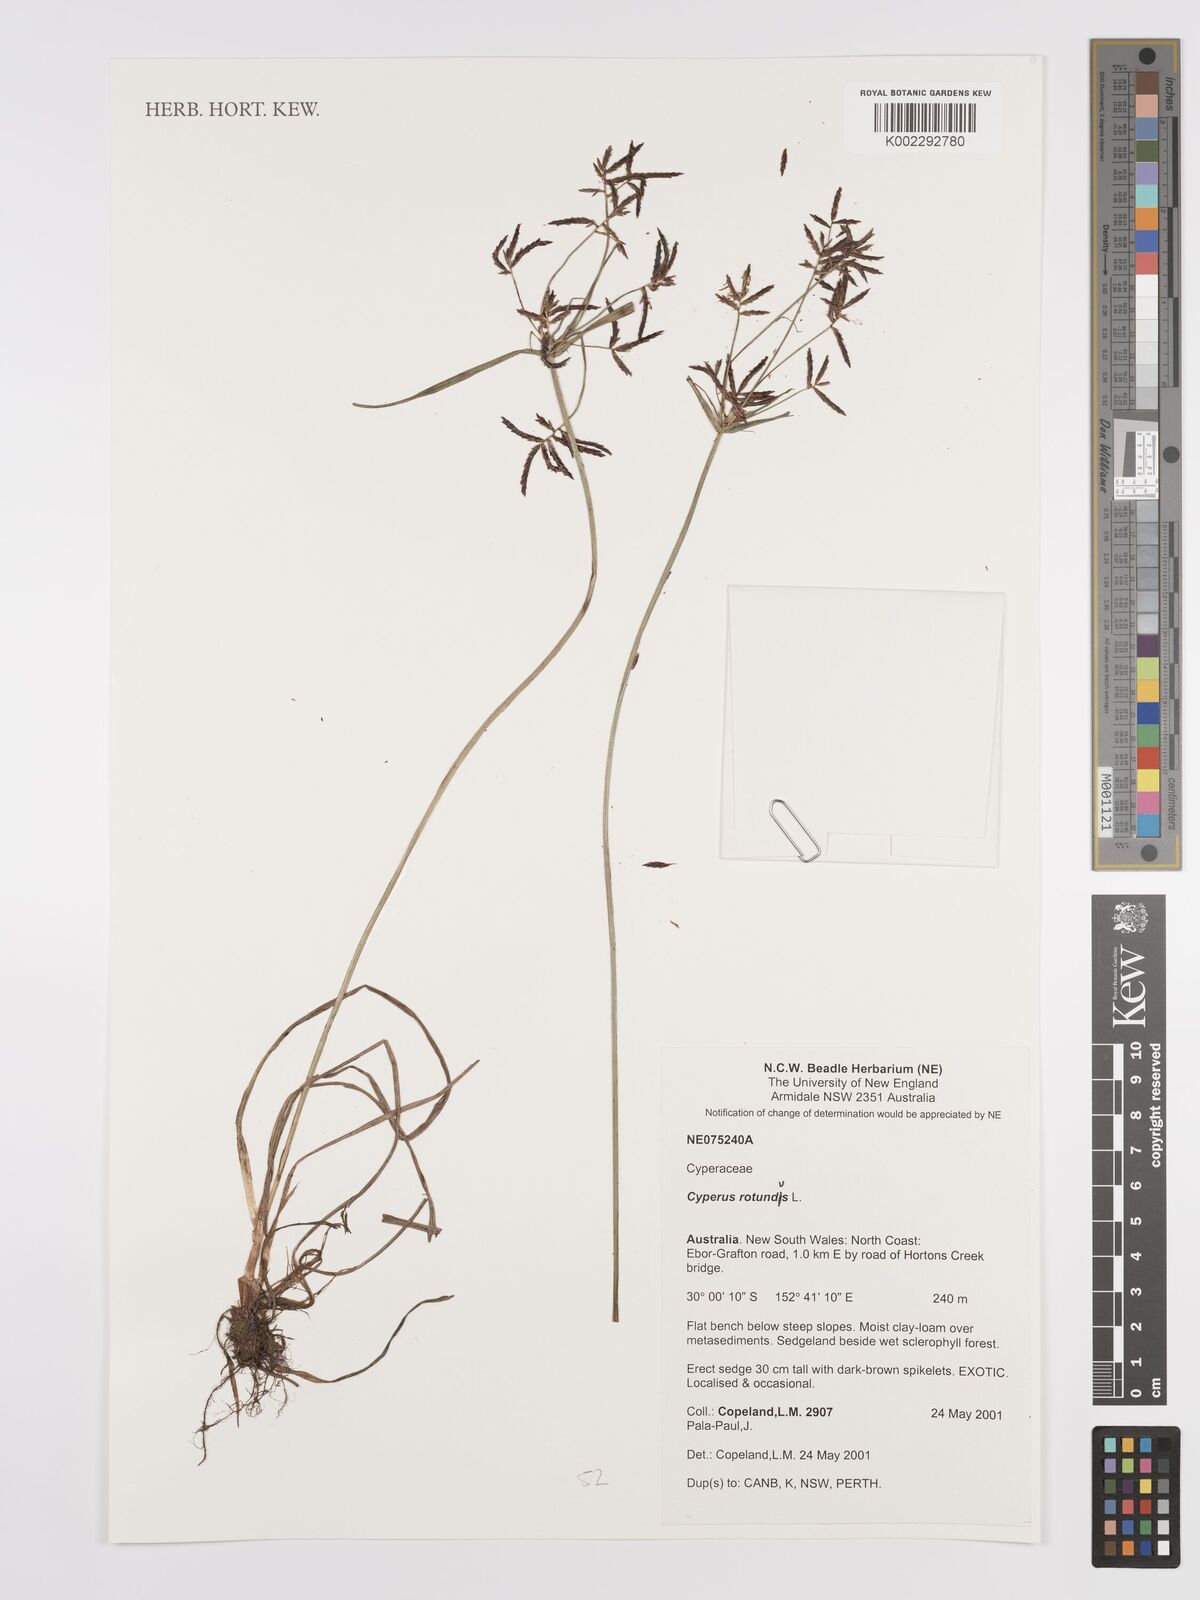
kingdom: Plantae
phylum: Tracheophyta
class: Liliopsida
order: Poales
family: Cyperaceae
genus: Cyperus
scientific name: Cyperus rotundus
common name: Nutgrass
